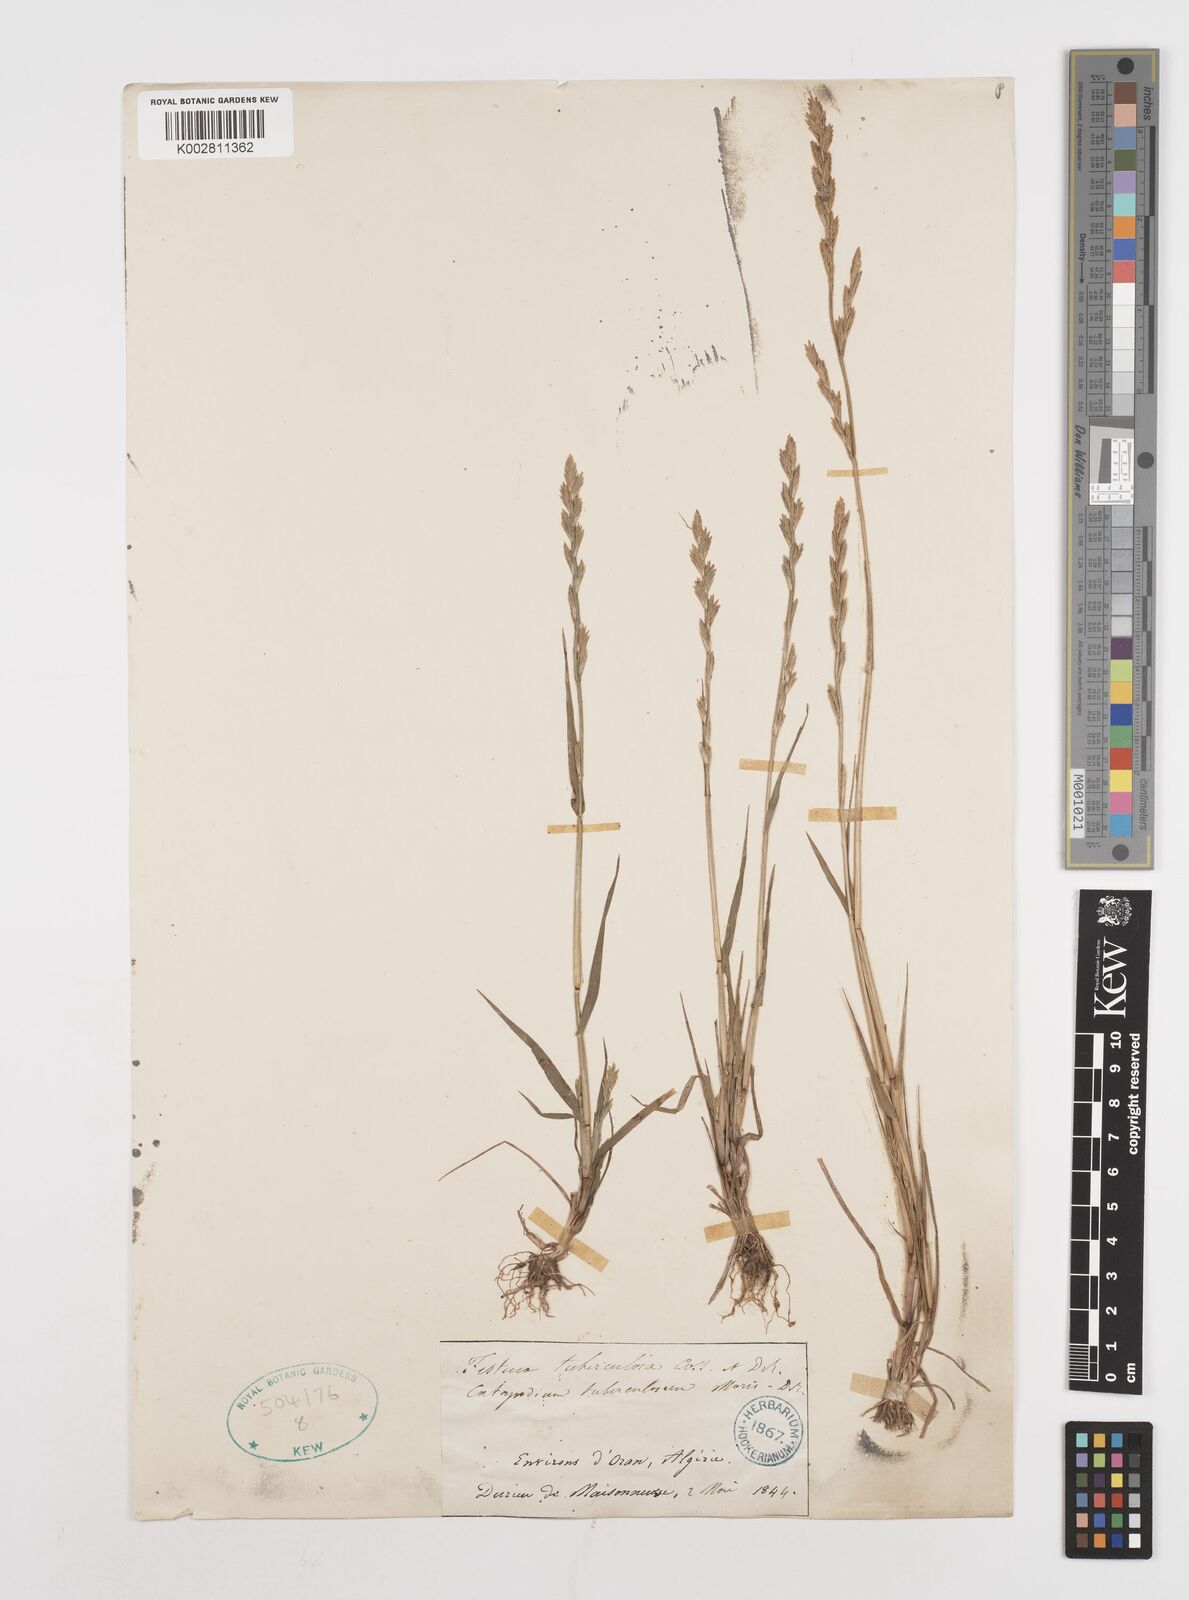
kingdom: Plantae
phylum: Tracheophyta
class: Liliopsida
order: Poales
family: Poaceae
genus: Castellia
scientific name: Castellia tuberculosa
